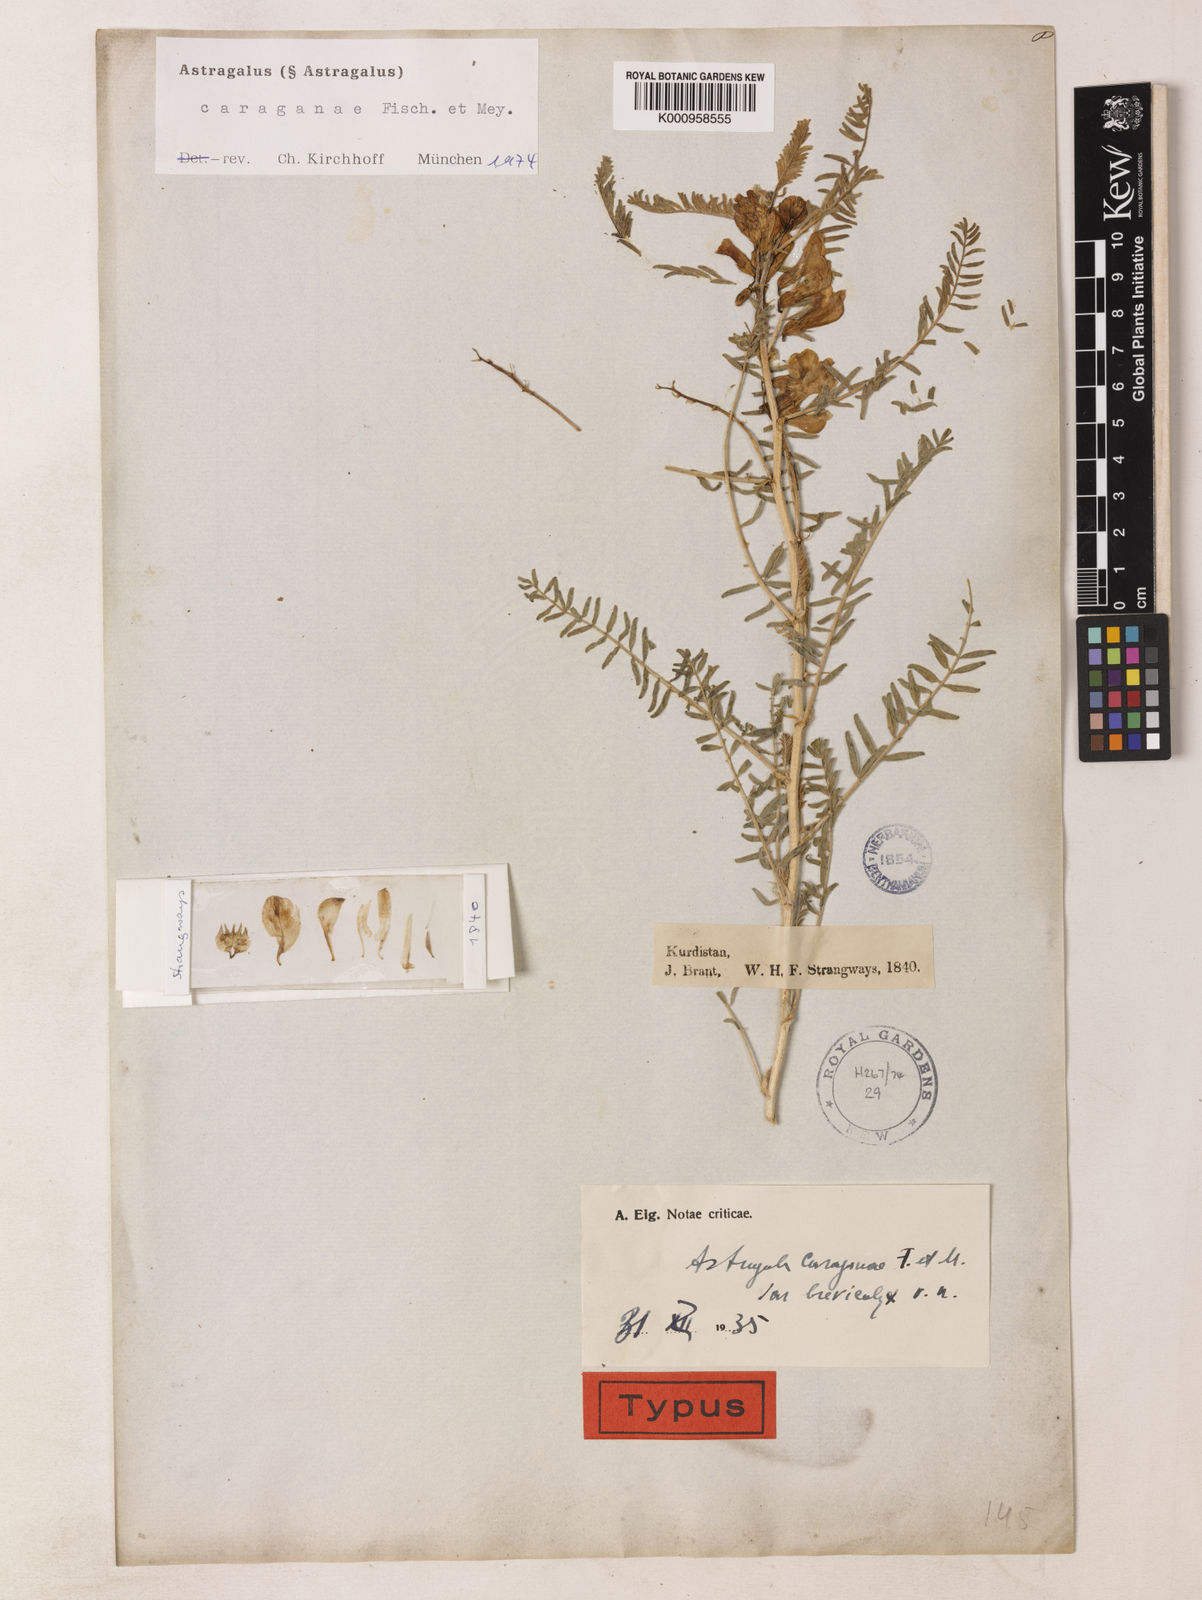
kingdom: Plantae
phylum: Tracheophyta
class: Magnoliopsida
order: Fabales
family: Fabaceae
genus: Astragalus
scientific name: Astragalus caraganae
